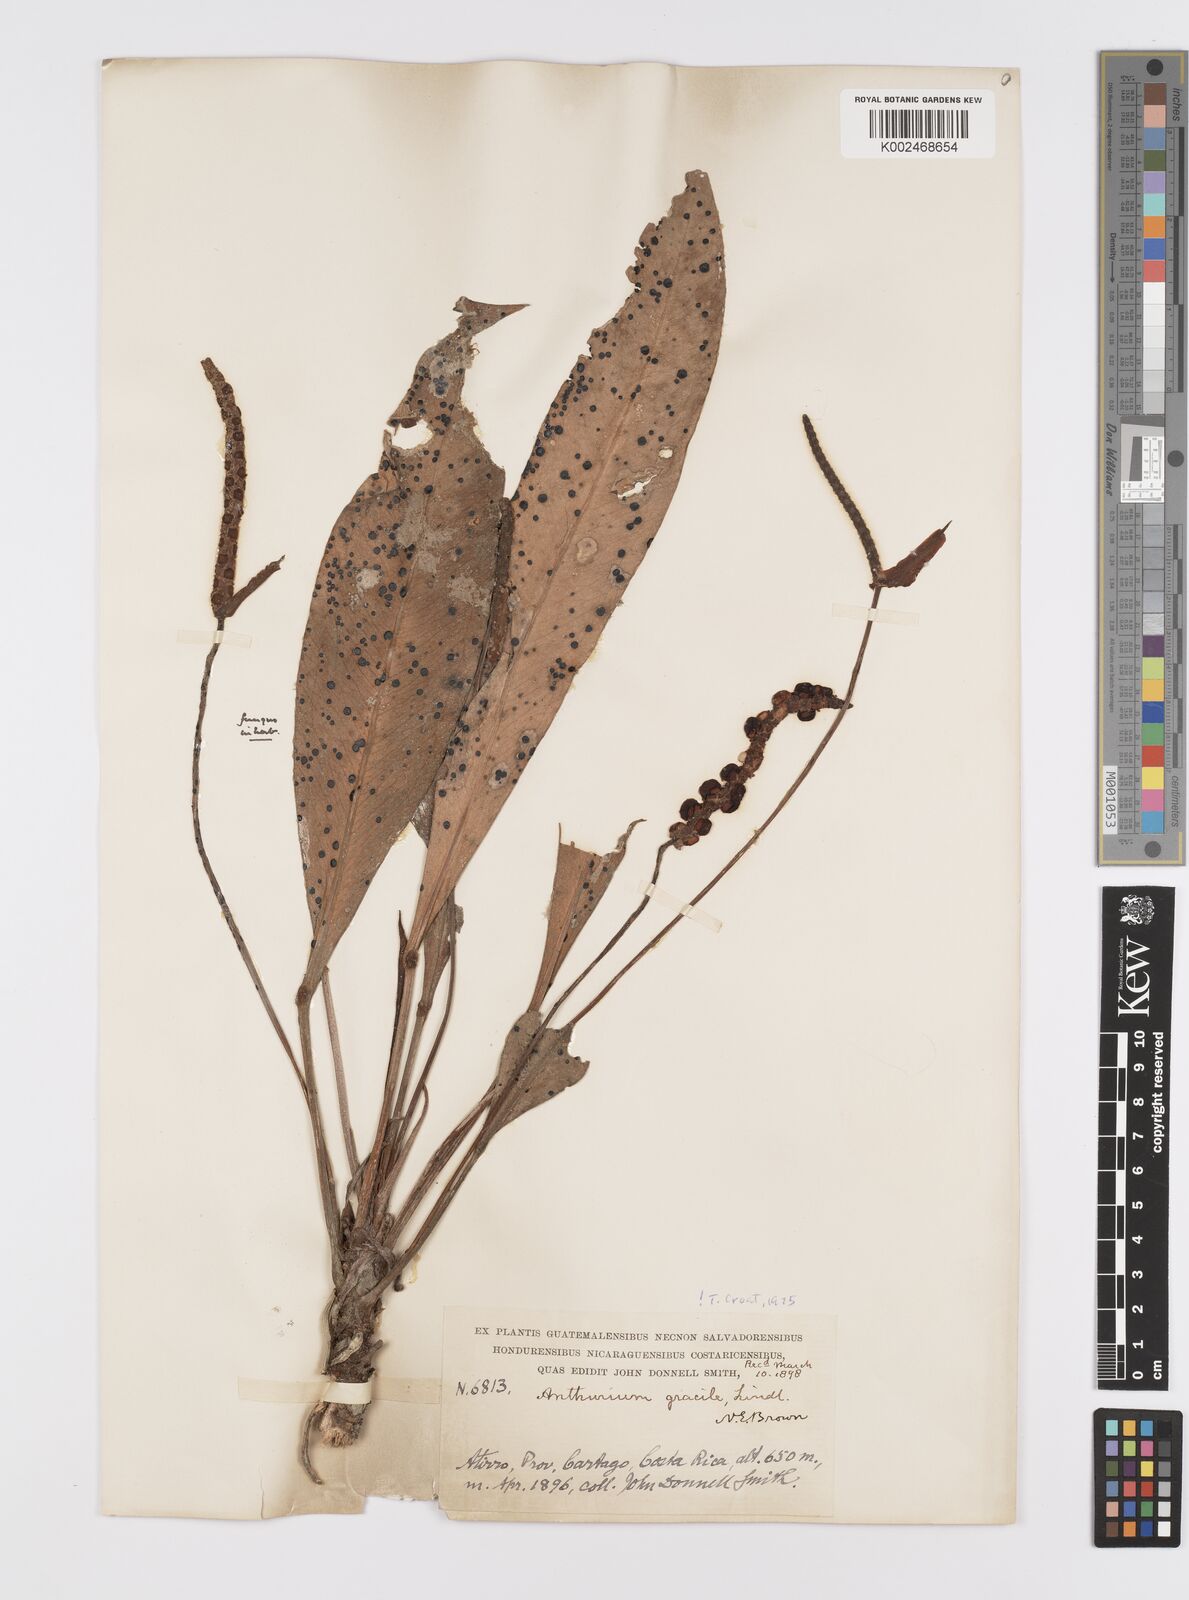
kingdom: Plantae
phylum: Tracheophyta
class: Liliopsida
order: Alismatales
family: Araceae
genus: Anthurium
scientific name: Anthurium gracile
